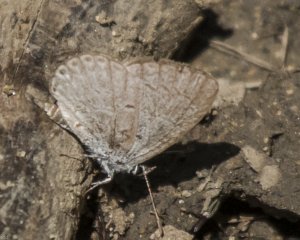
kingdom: Animalia
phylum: Arthropoda
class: Insecta
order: Lepidoptera
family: Lycaenidae
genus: Celastrina
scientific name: Celastrina
